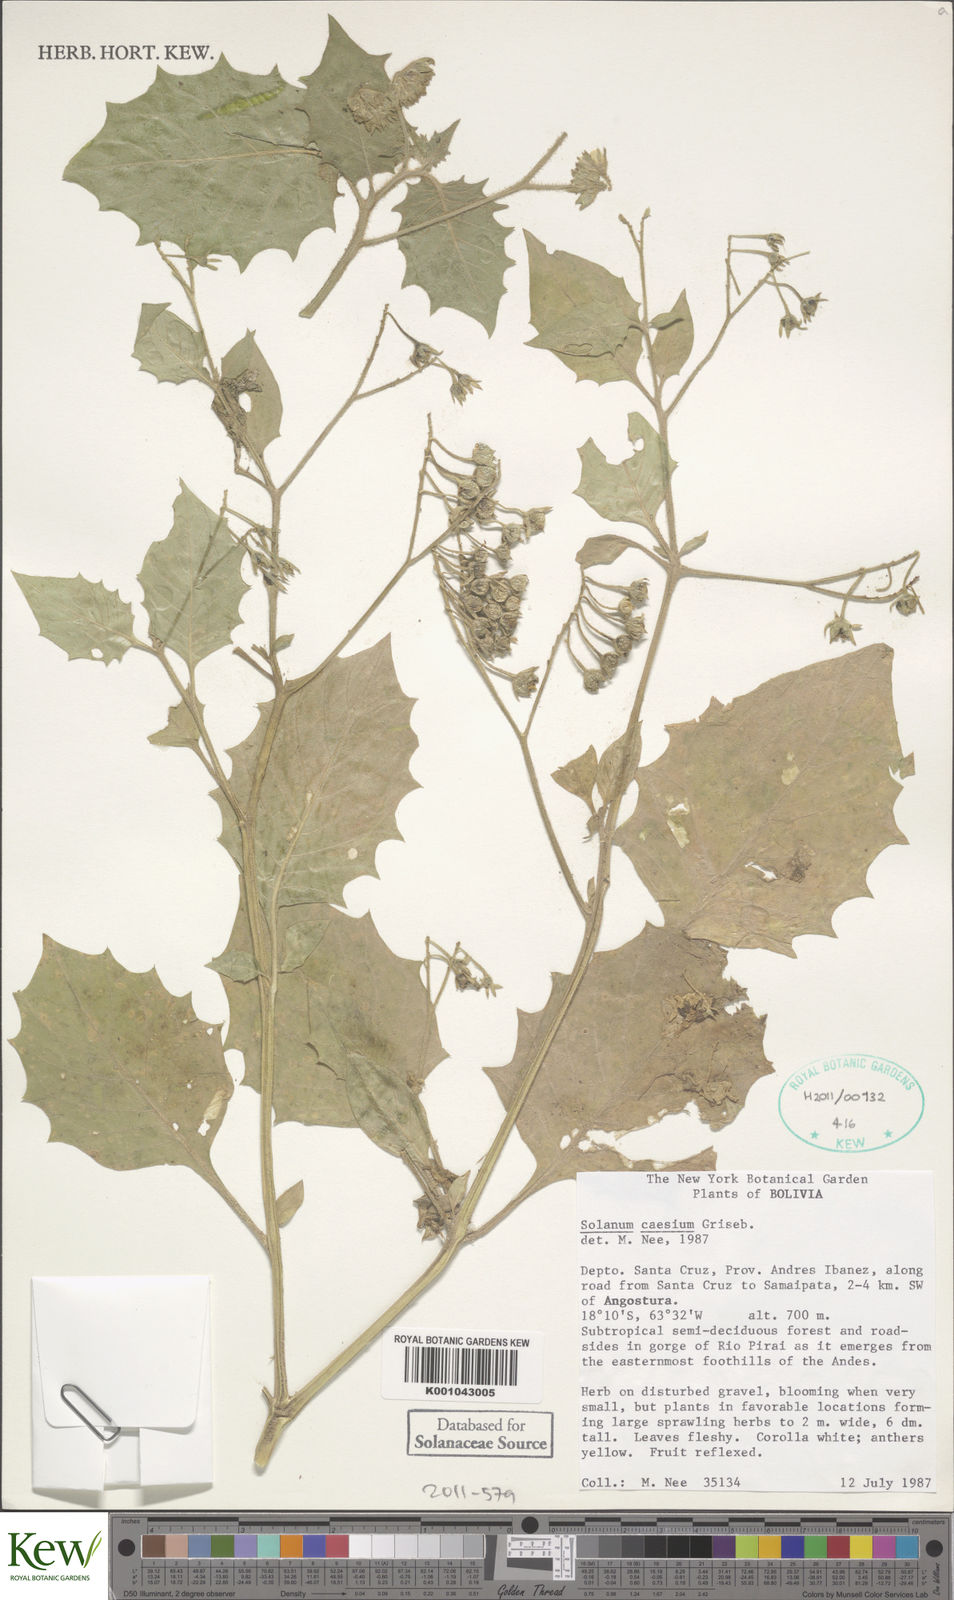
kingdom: Plantae
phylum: Tracheophyta
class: Magnoliopsida
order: Solanales
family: Solanaceae
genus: Solanum
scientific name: Solanum caesium
